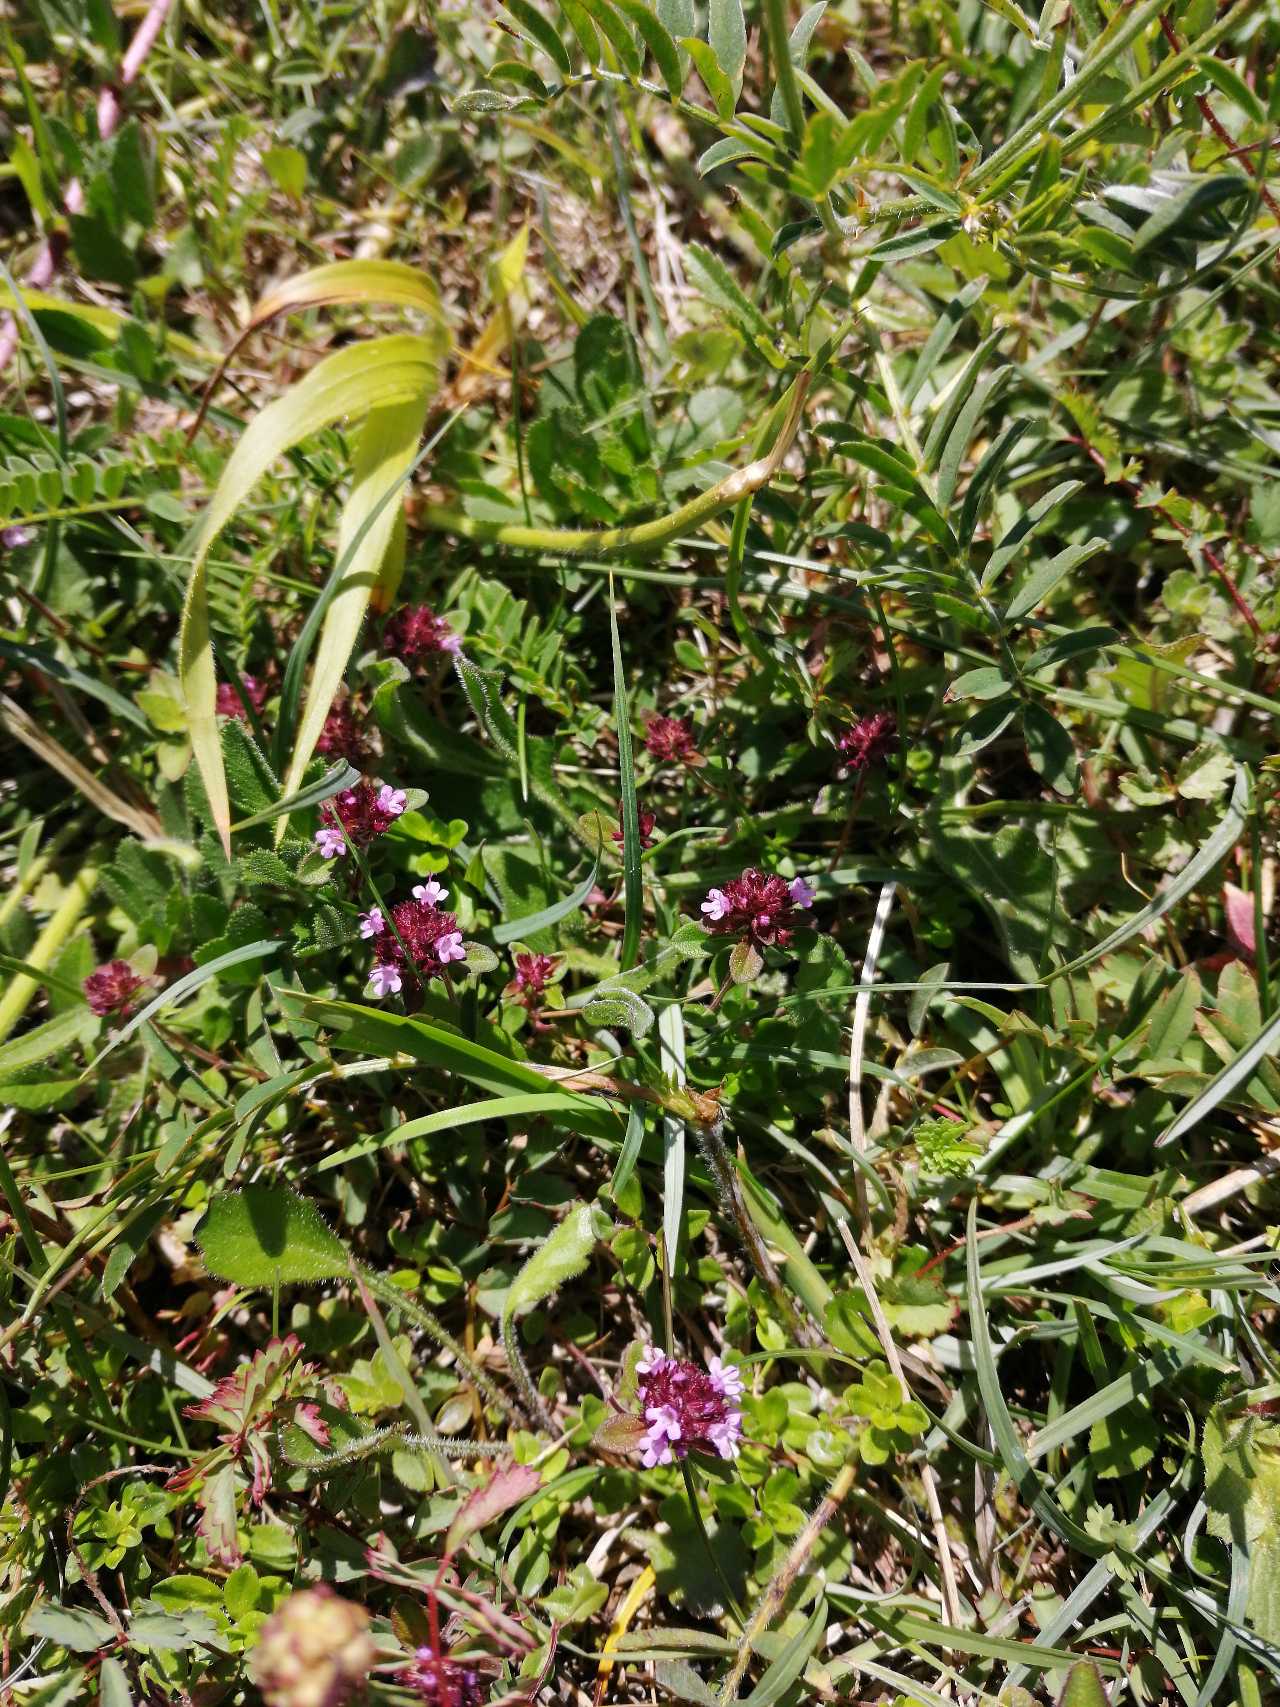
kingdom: Plantae
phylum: Tracheophyta
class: Magnoliopsida
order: Lamiales
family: Lamiaceae
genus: Thymus
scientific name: Thymus pulegioides
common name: Bredbladet timian
